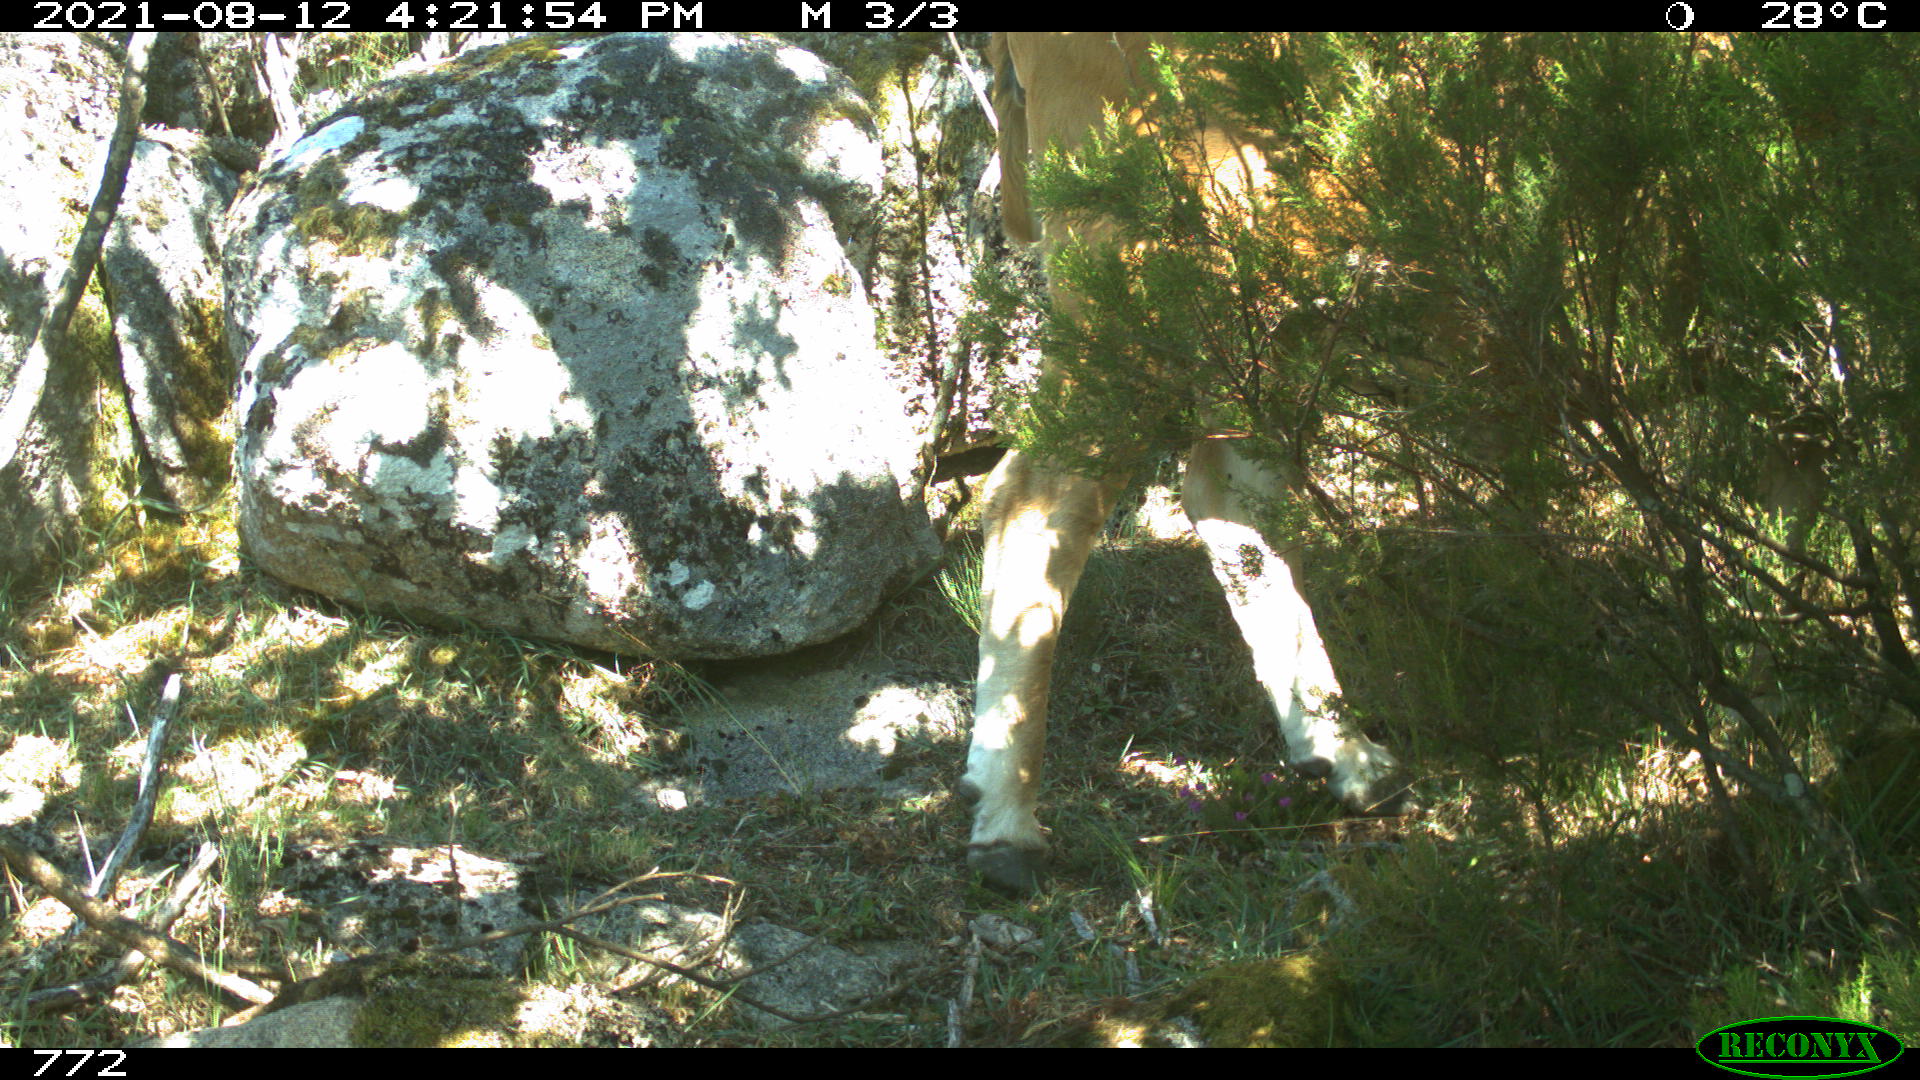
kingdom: Animalia
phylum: Chordata
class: Mammalia
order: Artiodactyla
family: Bovidae
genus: Bos
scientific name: Bos taurus
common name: Domesticated cattle
